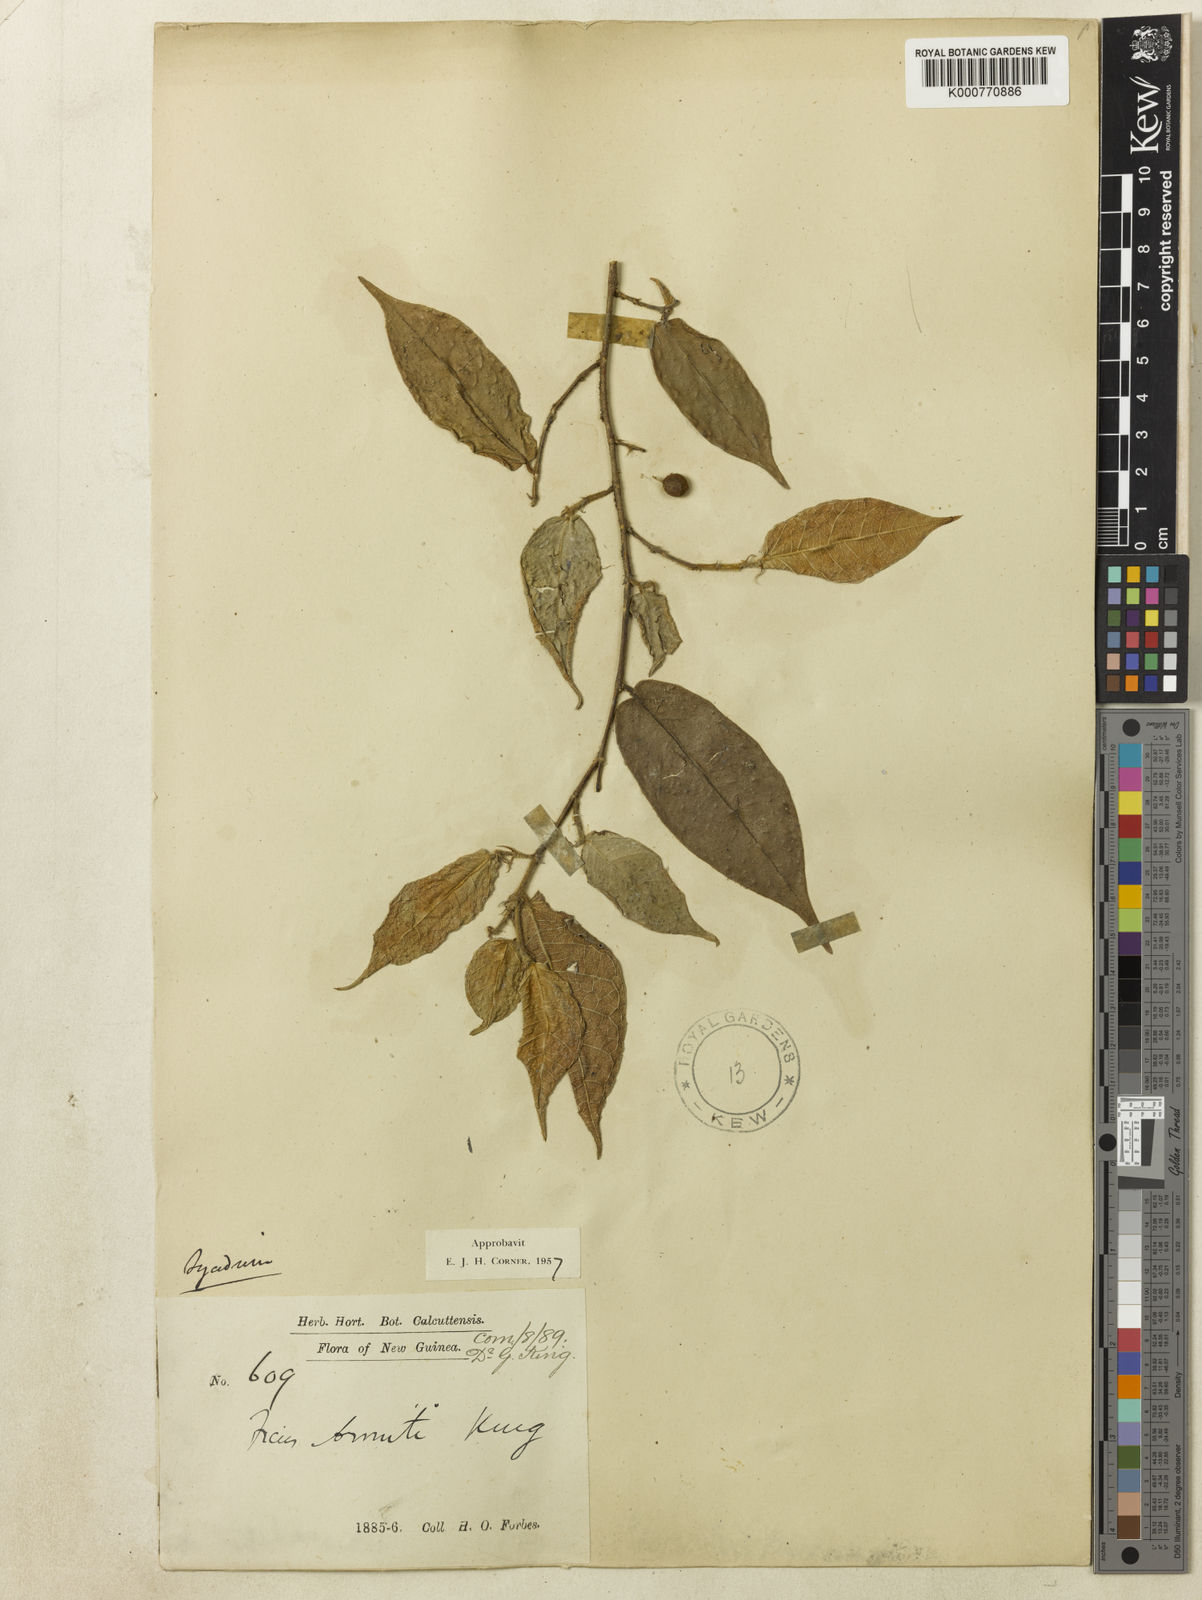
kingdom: Plantae
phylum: Tracheophyta
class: Magnoliopsida
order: Rosales
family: Moraceae
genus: Ficus
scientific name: Ficus armitii
